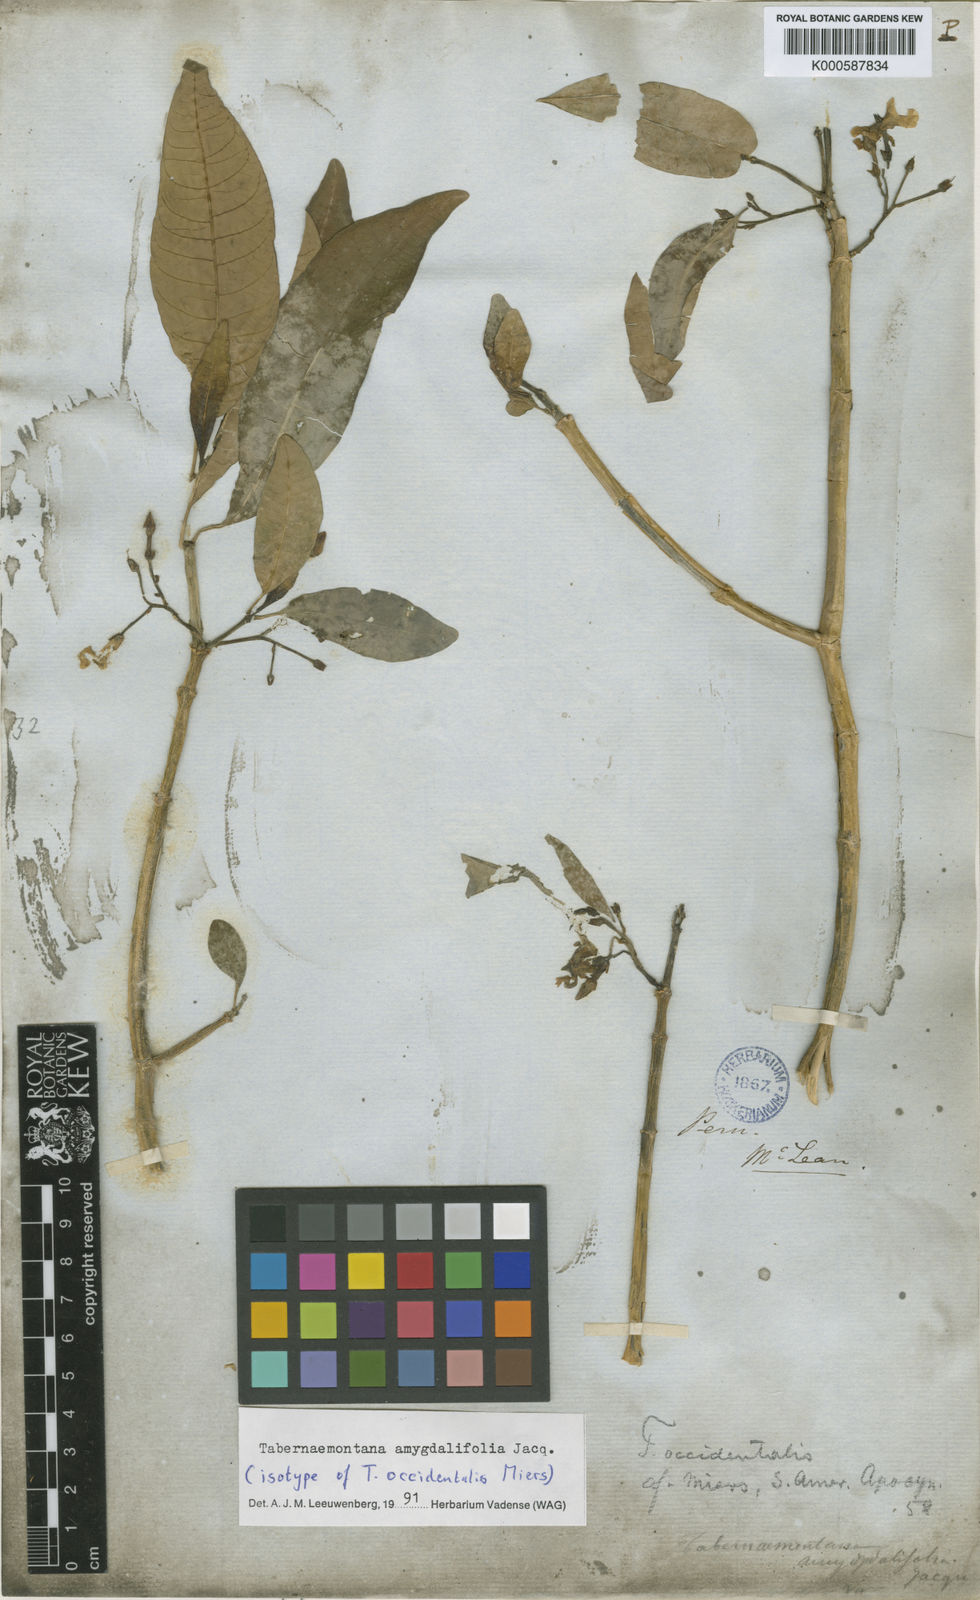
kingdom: Plantae
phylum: Tracheophyta
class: Magnoliopsida
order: Gentianales
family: Apocynaceae
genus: Tabernaemontana
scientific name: Tabernaemontana amygdalifolia
